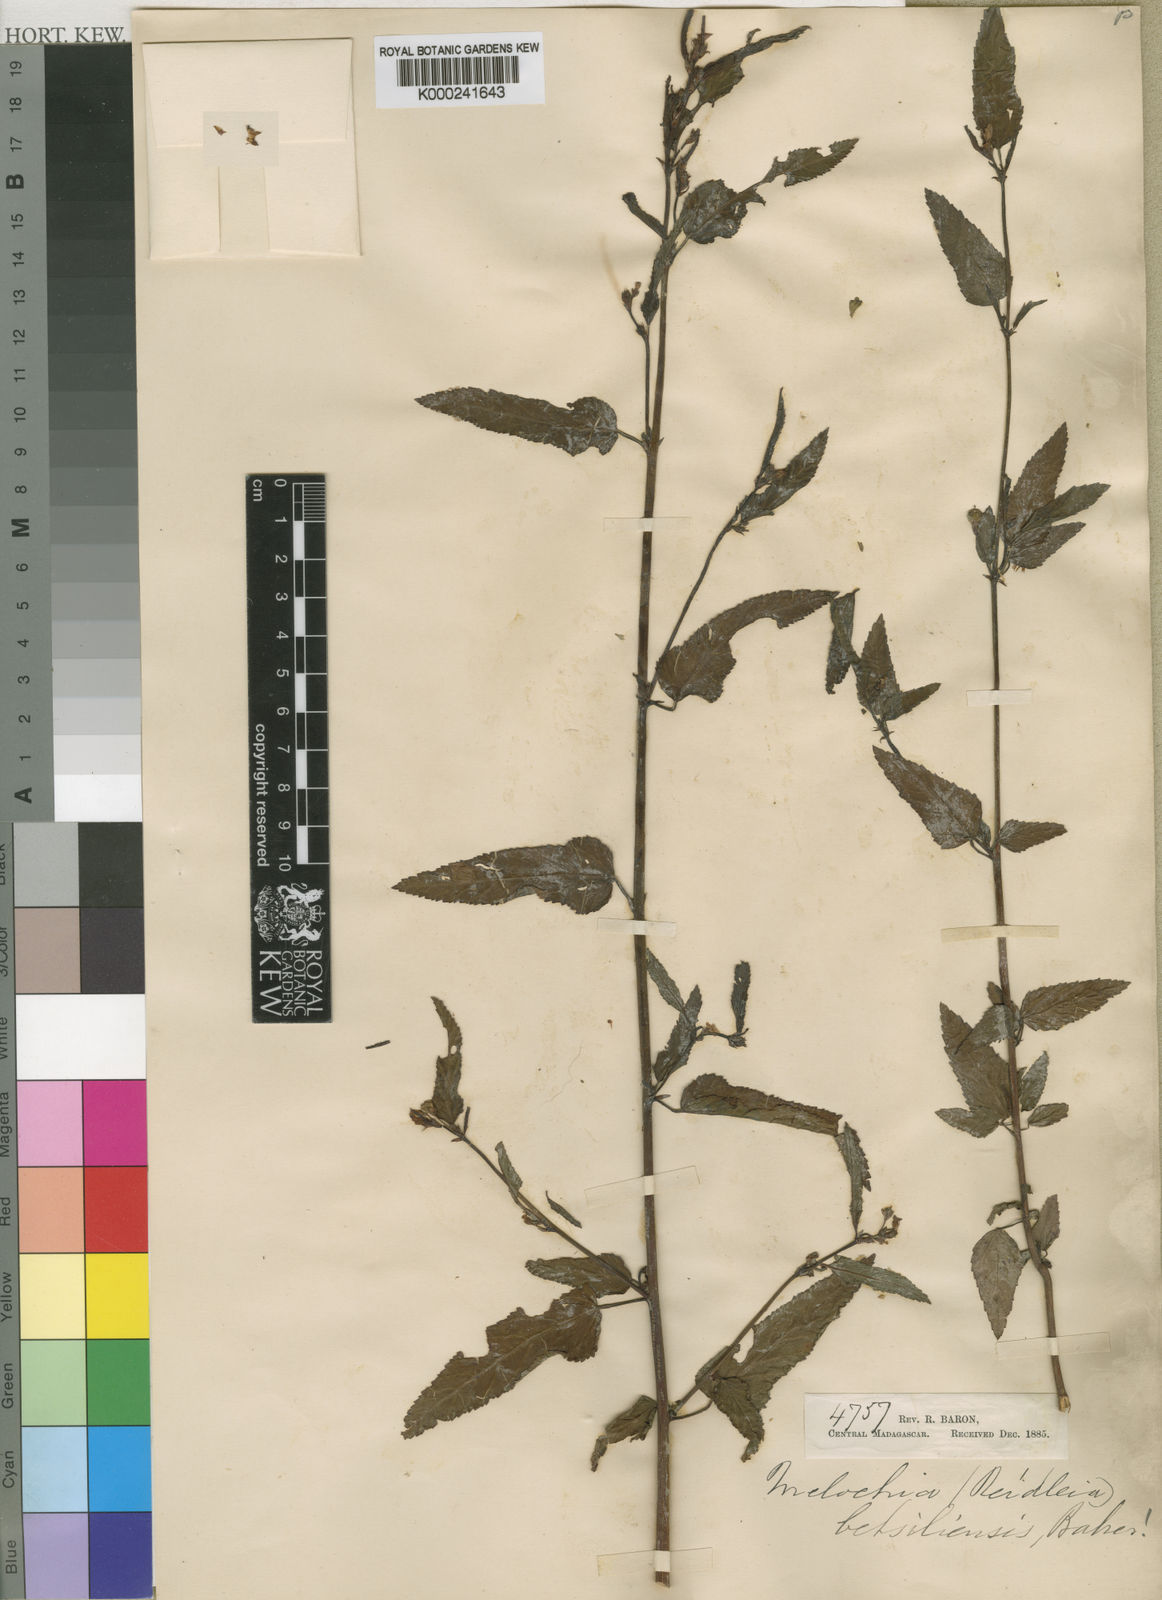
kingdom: Plantae
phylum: Tracheophyta
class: Magnoliopsida
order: Malvales
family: Malvaceae
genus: Melochia
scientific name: Melochia betsiliensis
